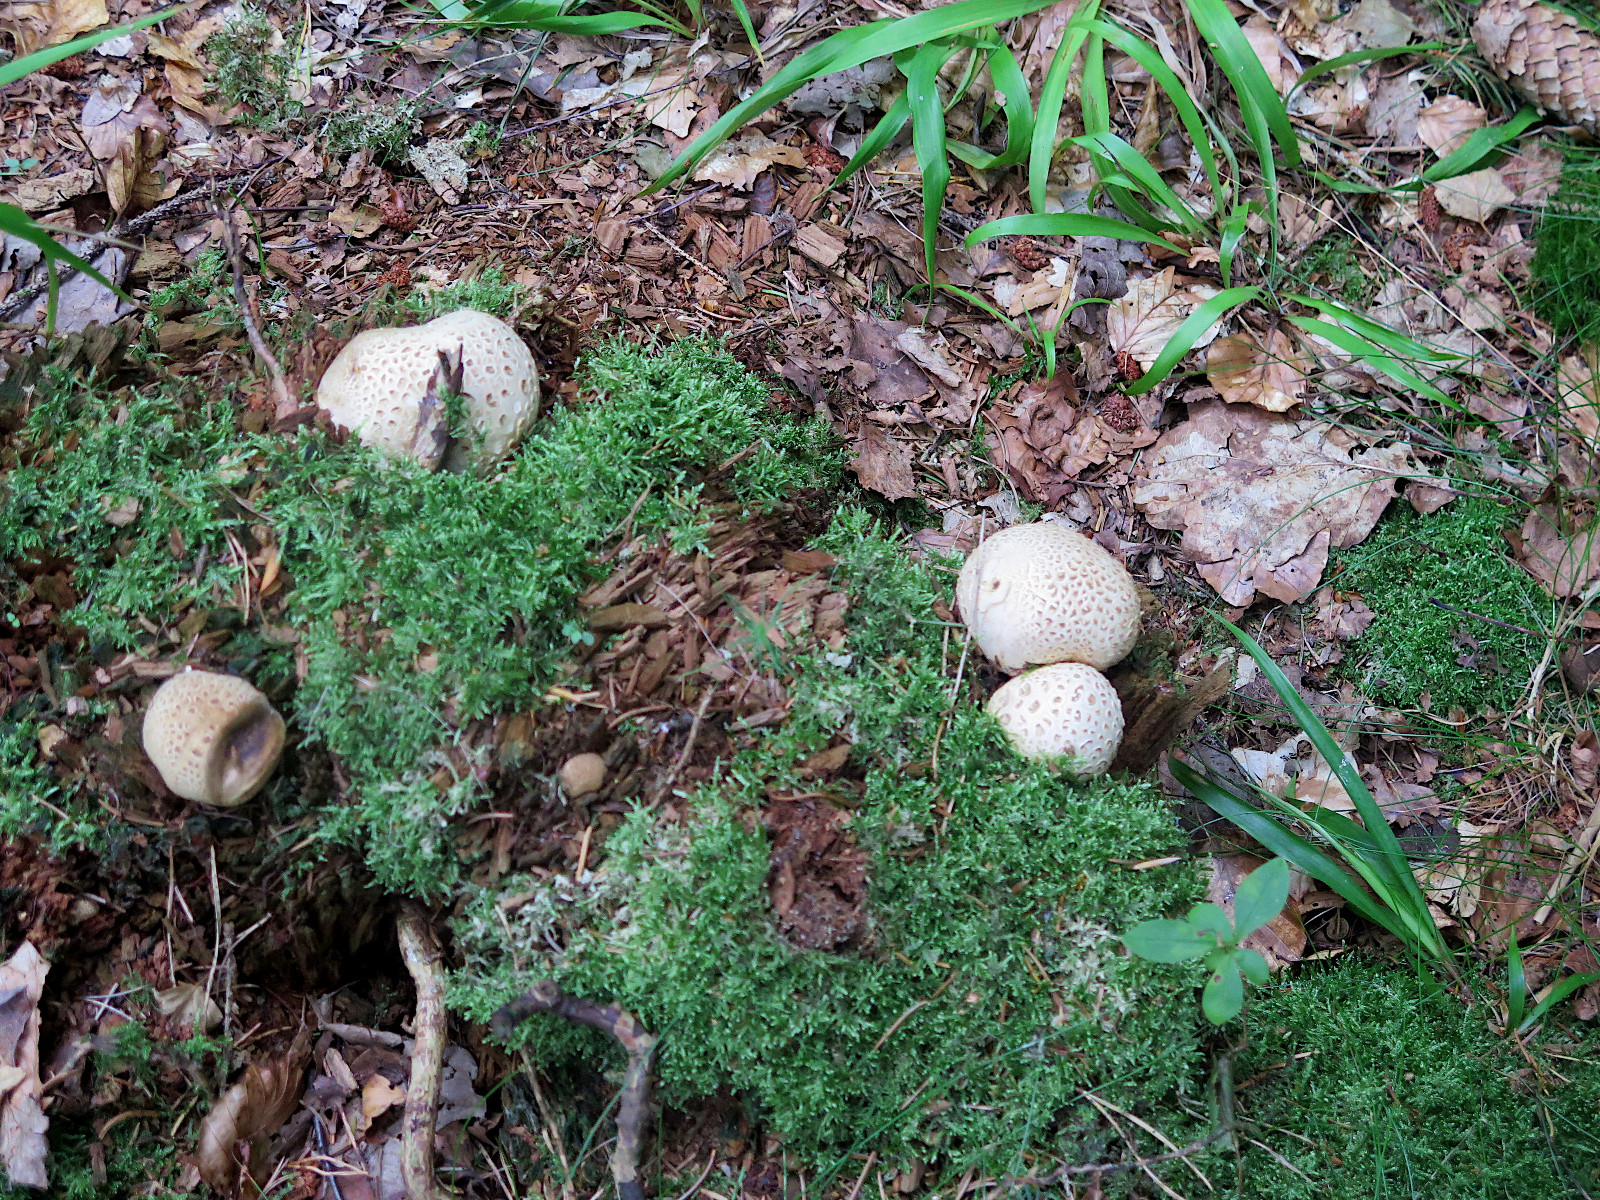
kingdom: Fungi
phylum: Basidiomycota
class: Agaricomycetes
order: Boletales
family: Sclerodermataceae
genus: Scleroderma
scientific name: Scleroderma citrinum
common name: almindelig bruskbold
